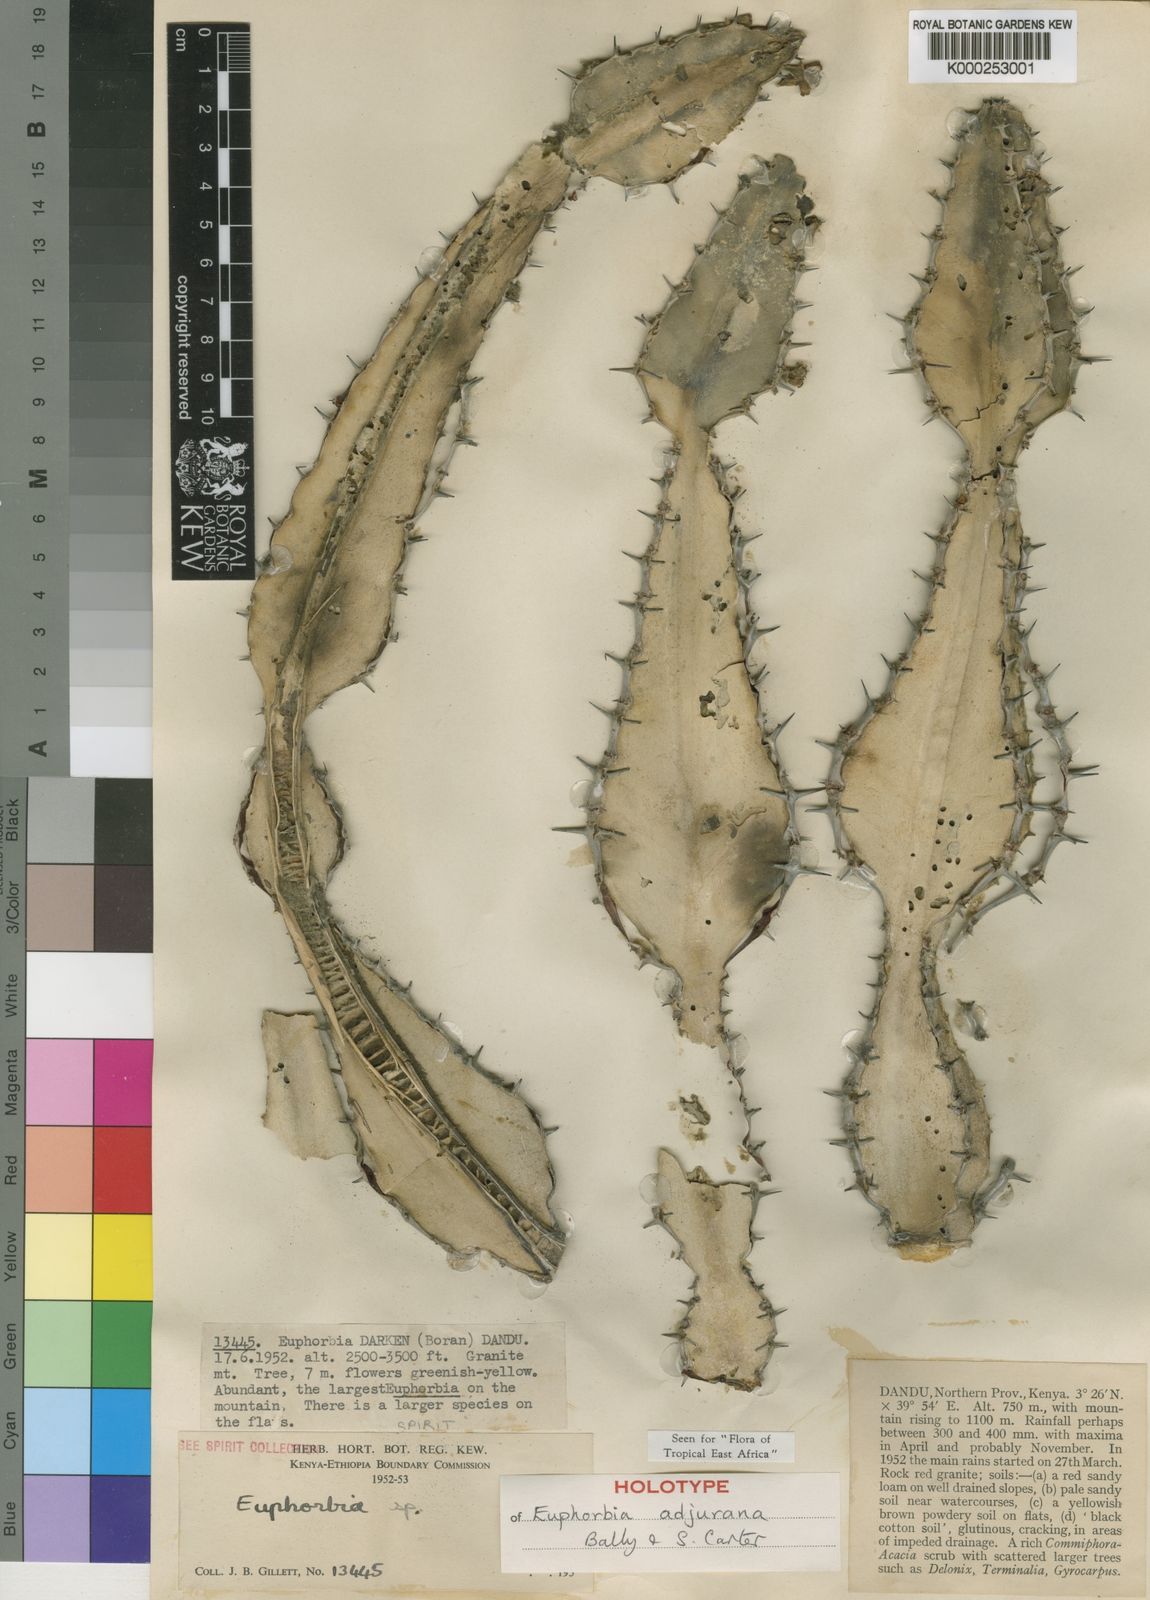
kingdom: Plantae
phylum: Tracheophyta
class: Magnoliopsida
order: Malpighiales
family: Euphorbiaceae
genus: Euphorbia
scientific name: Euphorbia adjurana
